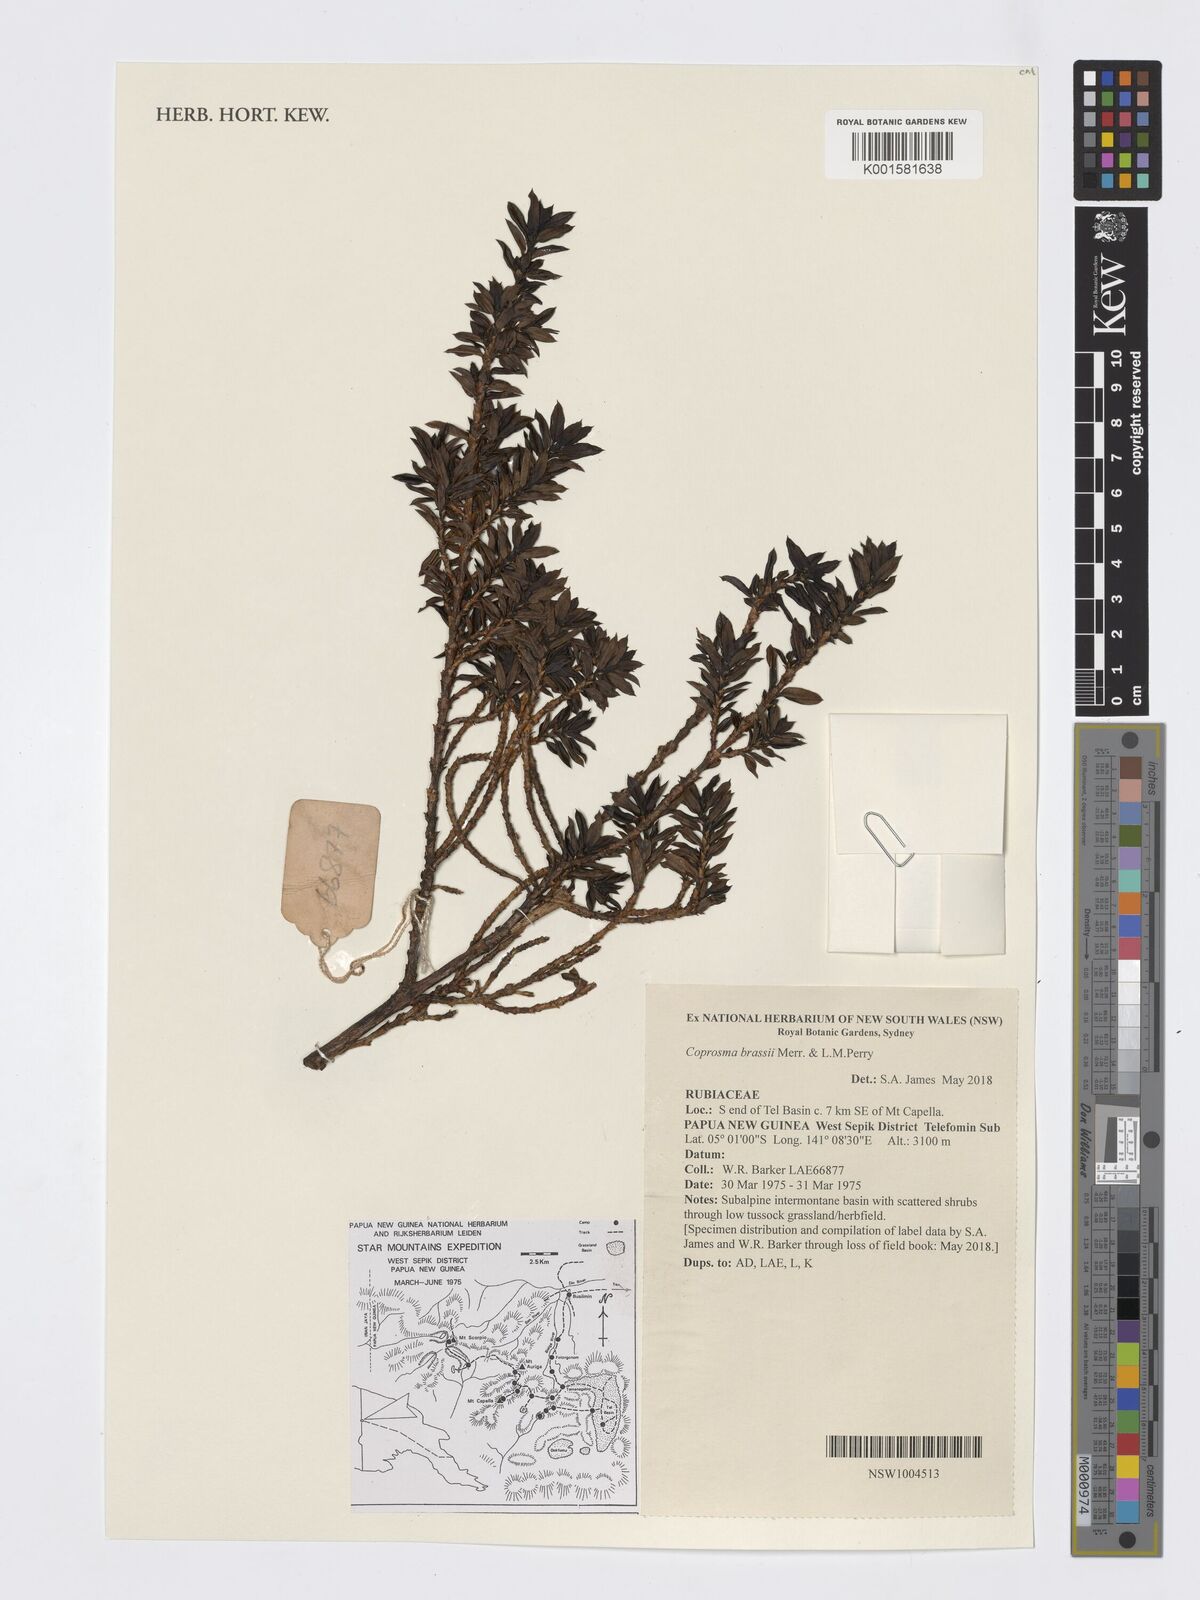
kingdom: Plantae
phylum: Tracheophyta
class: Magnoliopsida
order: Gentianales
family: Rubiaceae
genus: Coprosma
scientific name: Coprosma brassii
